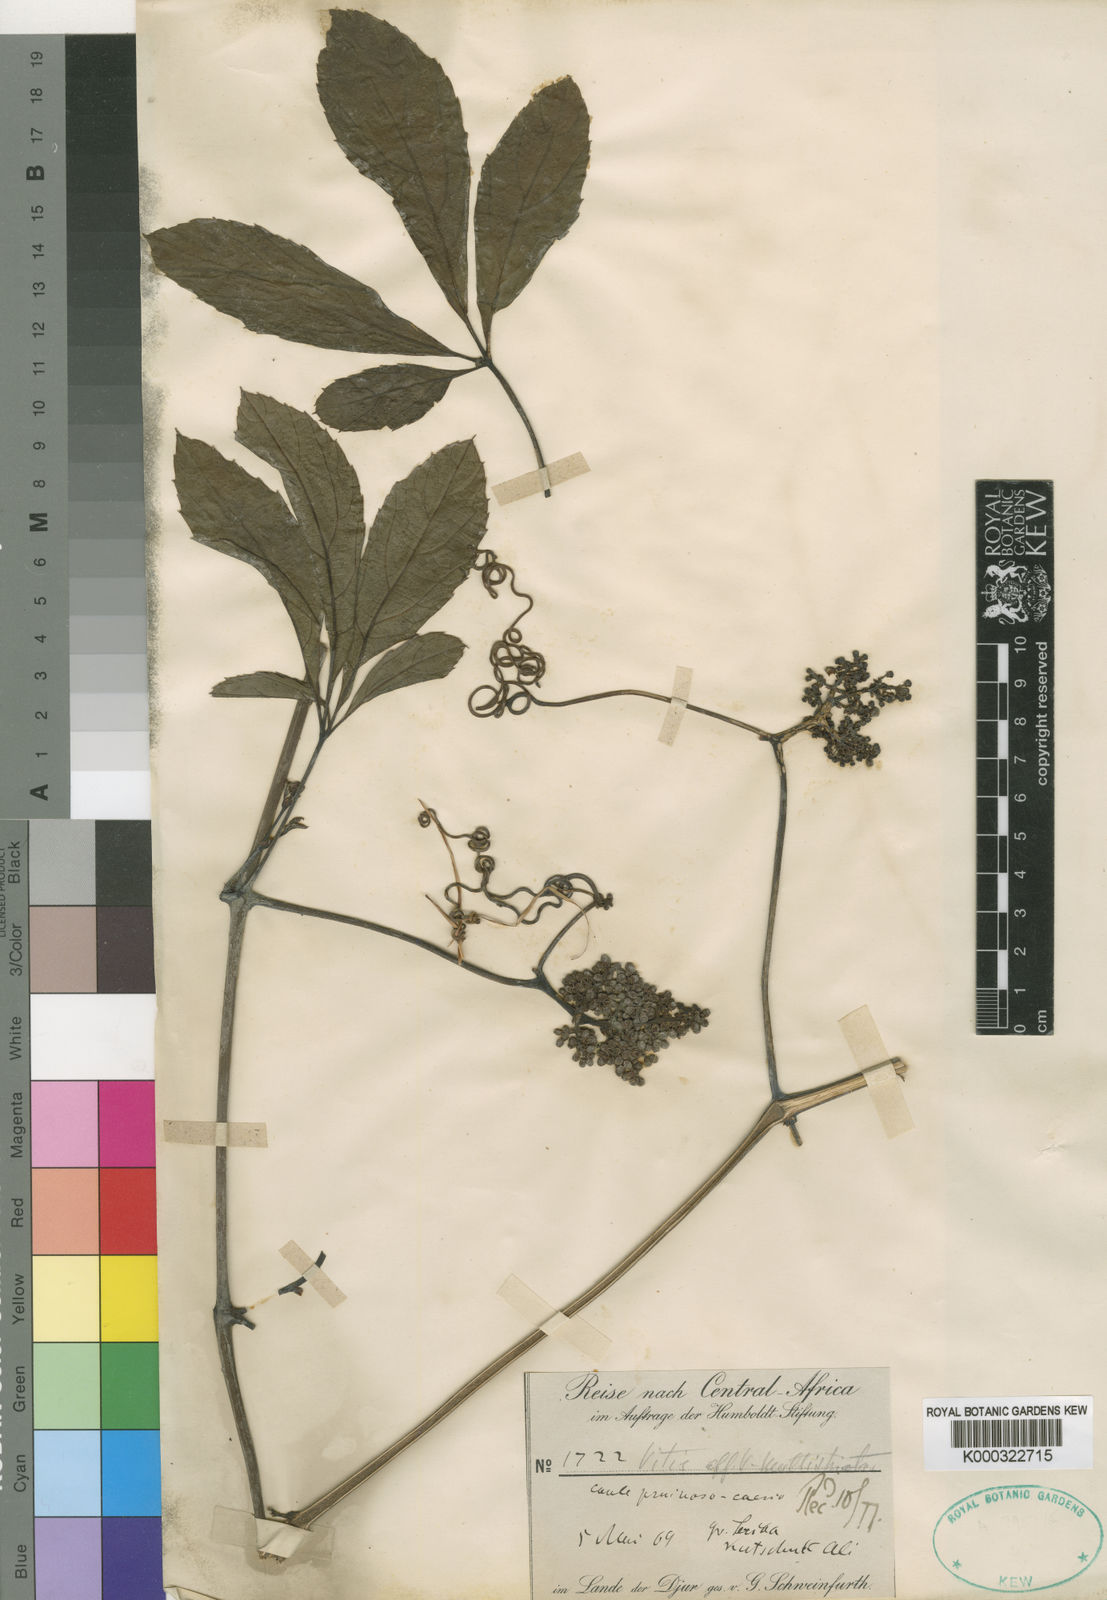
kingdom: Plantae
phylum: Tracheophyta
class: Magnoliopsida
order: Vitales
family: Vitaceae
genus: Ampelocissus
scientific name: Ampelocissus multistriata
